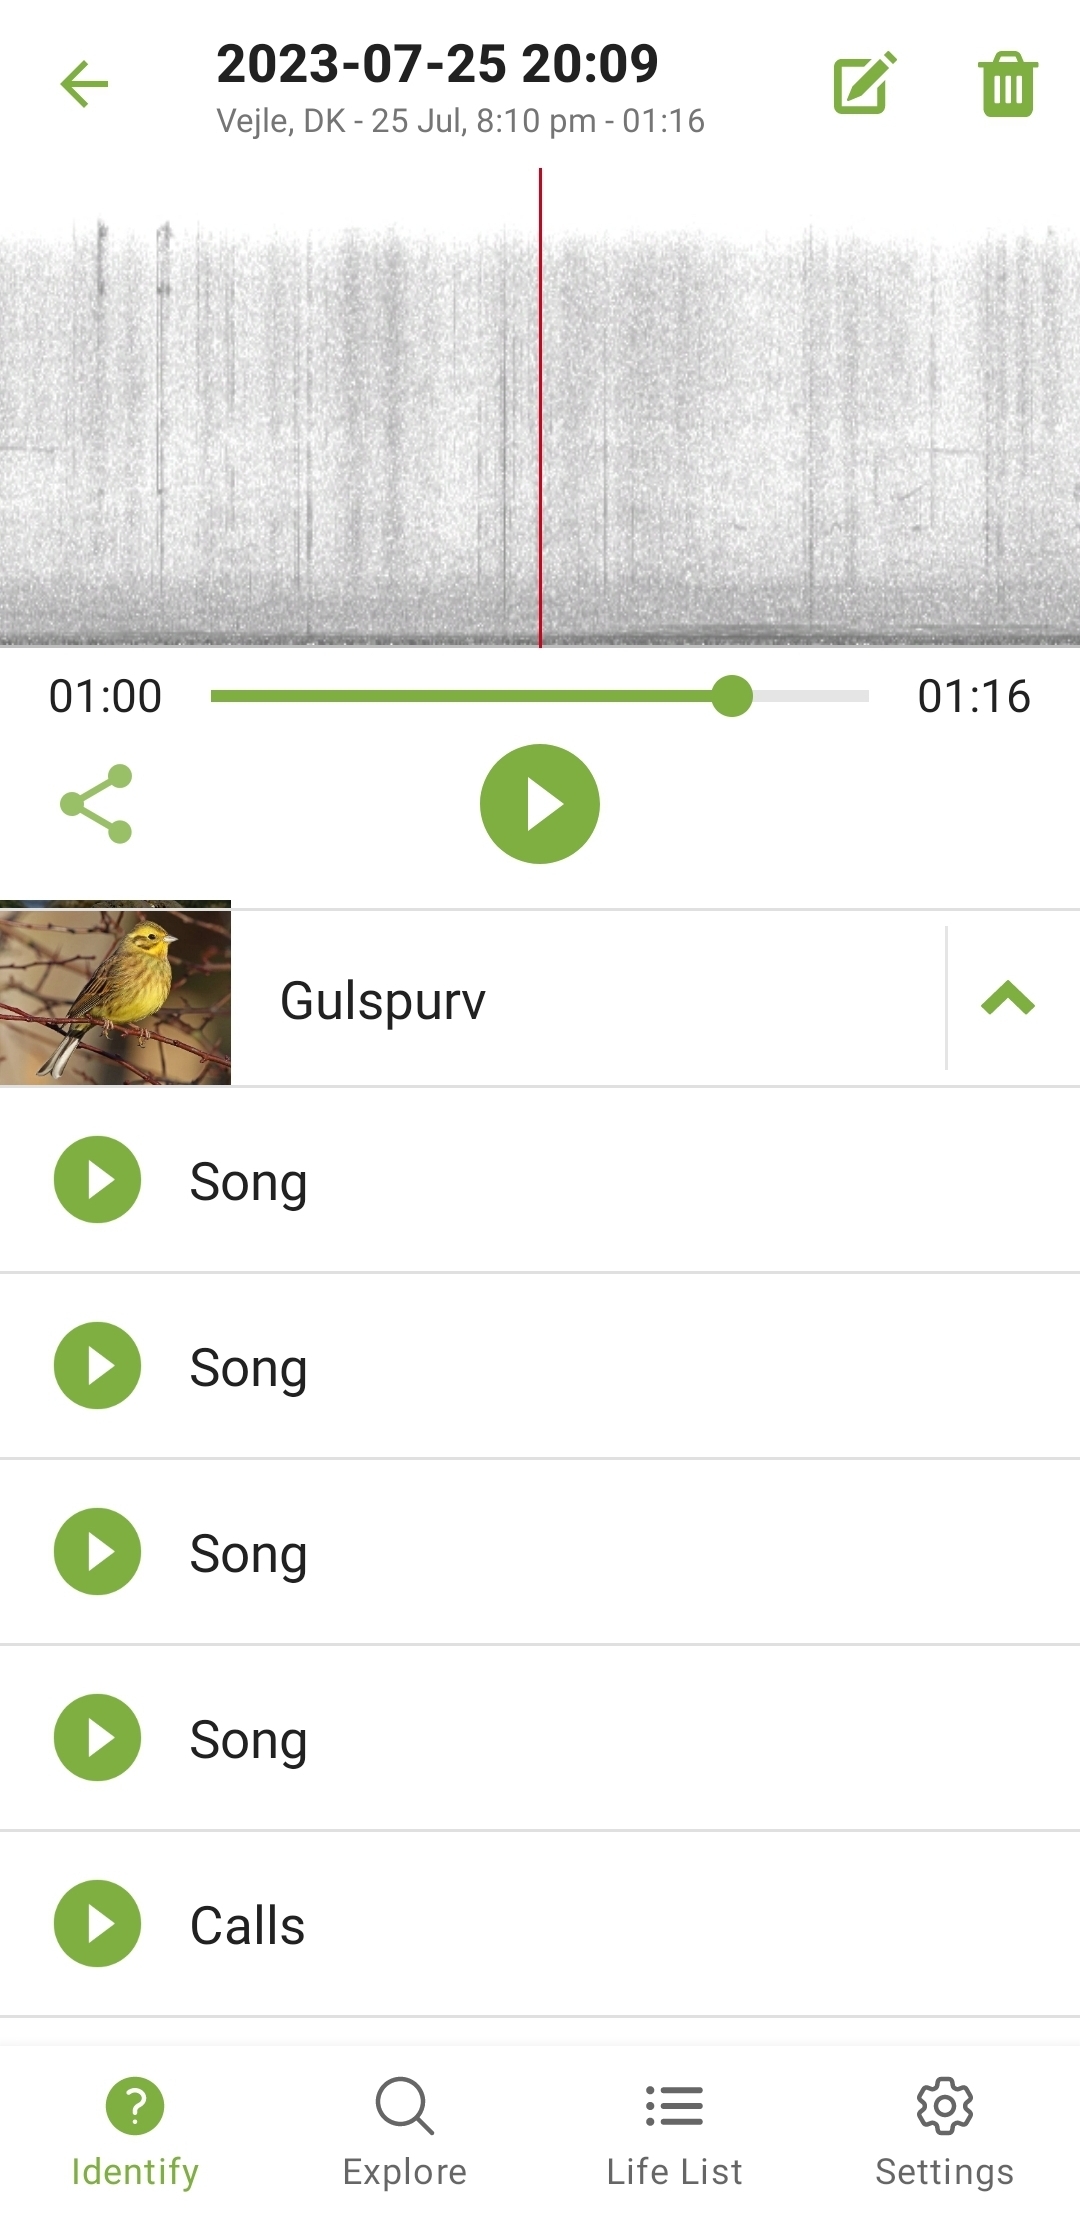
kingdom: Animalia
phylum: Chordata
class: Aves
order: Passeriformes
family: Emberizidae
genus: Emberiza
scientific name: Emberiza citrinella
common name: Gulspurv
